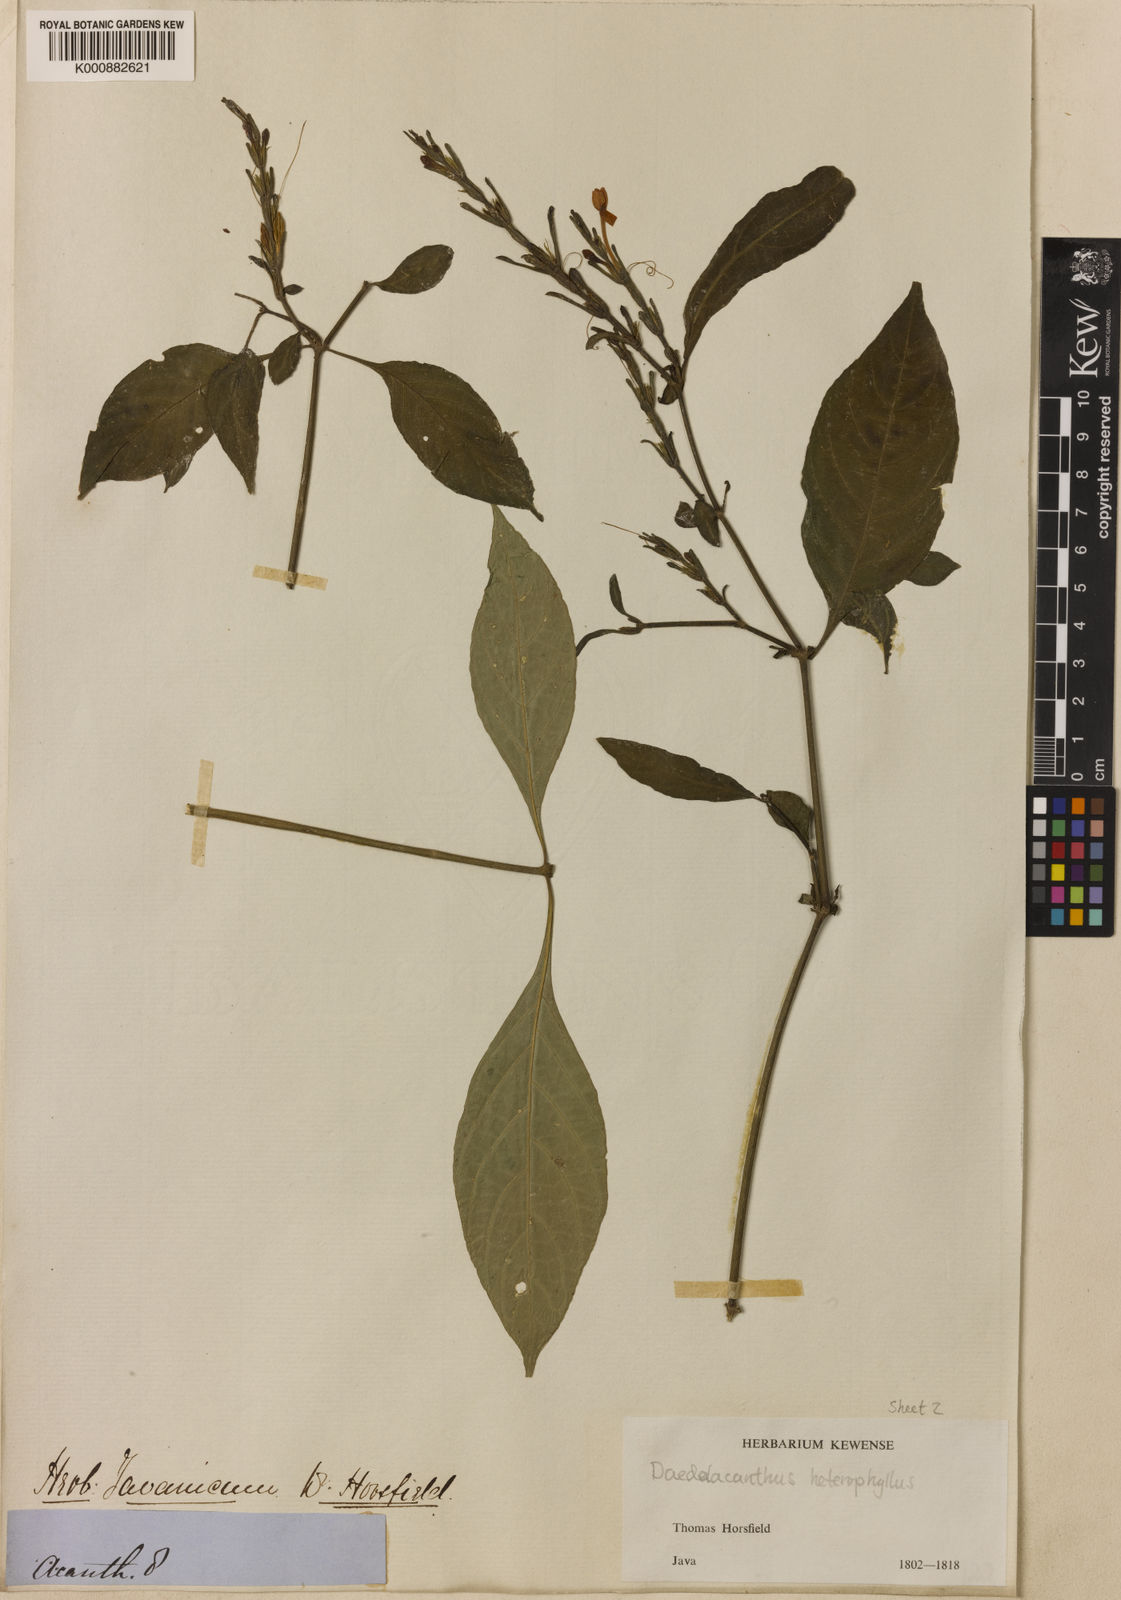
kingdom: Plantae
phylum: Tracheophyta
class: Magnoliopsida
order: Lamiales
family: Acanthaceae
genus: Pseuderanthemum
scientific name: Pseuderanthemum heterophyllum
